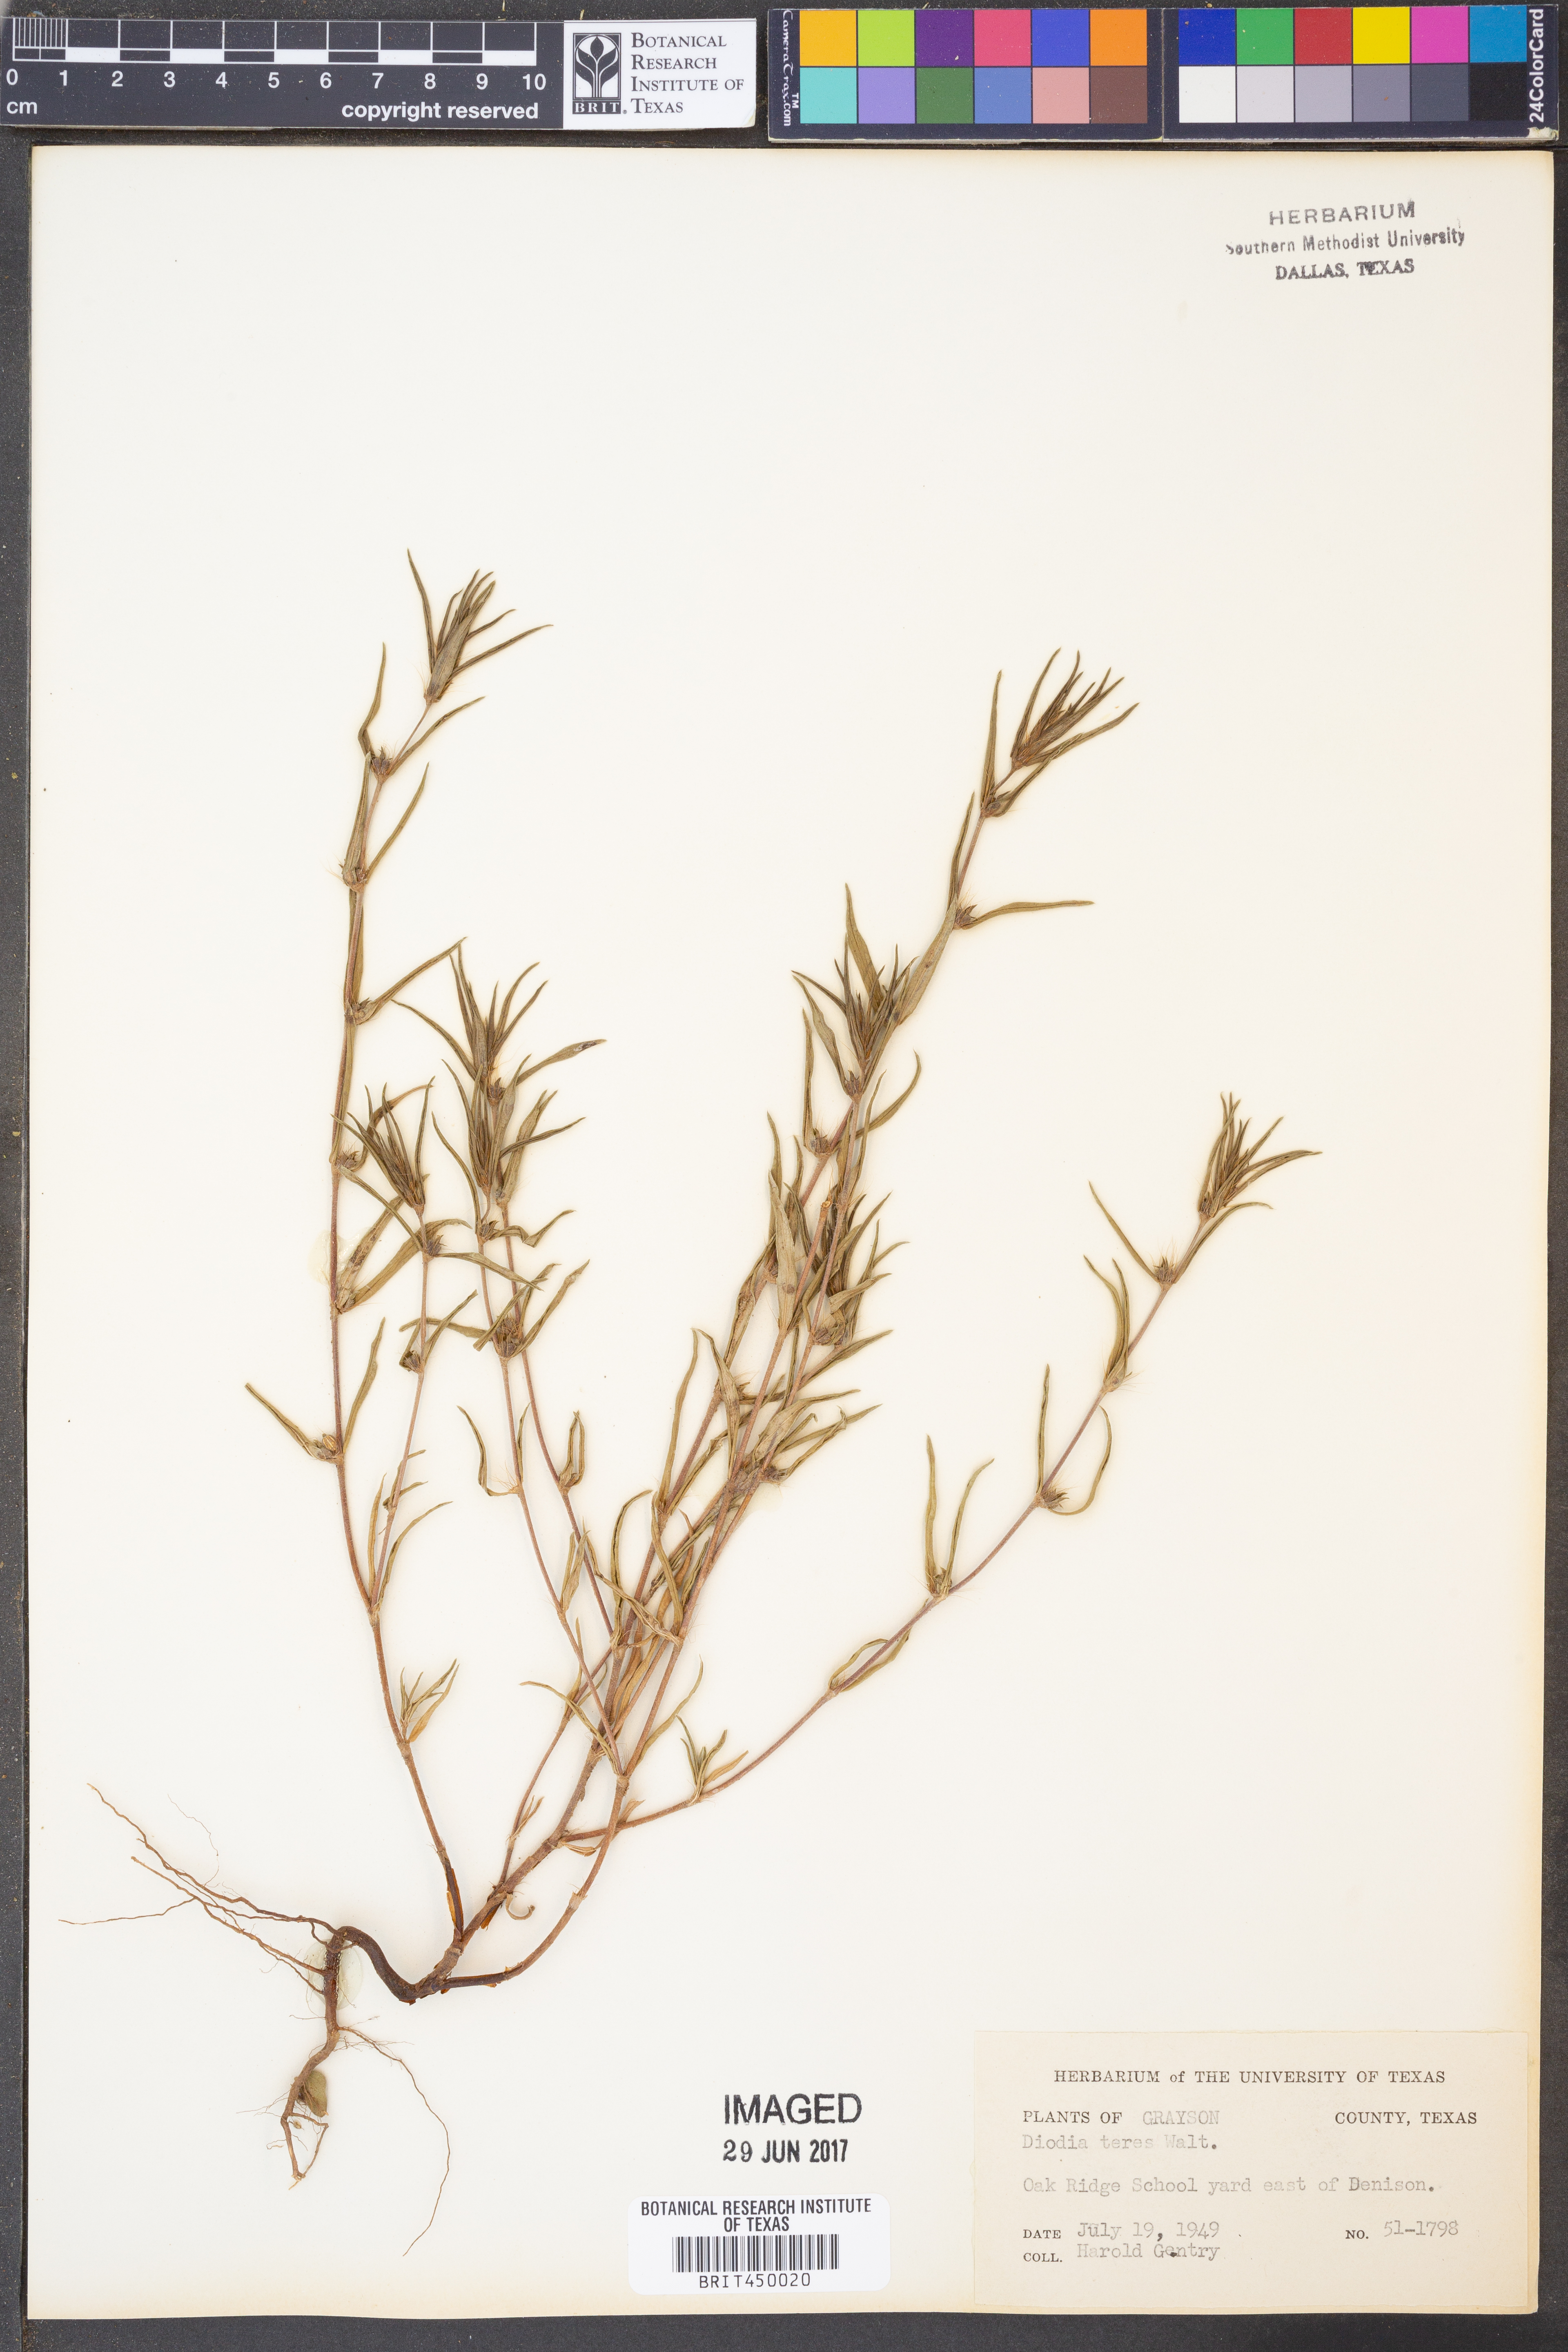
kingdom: Plantae
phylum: Tracheophyta
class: Magnoliopsida
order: Gentianales
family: Rubiaceae
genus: Hexasepalum
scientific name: Hexasepalum teres
